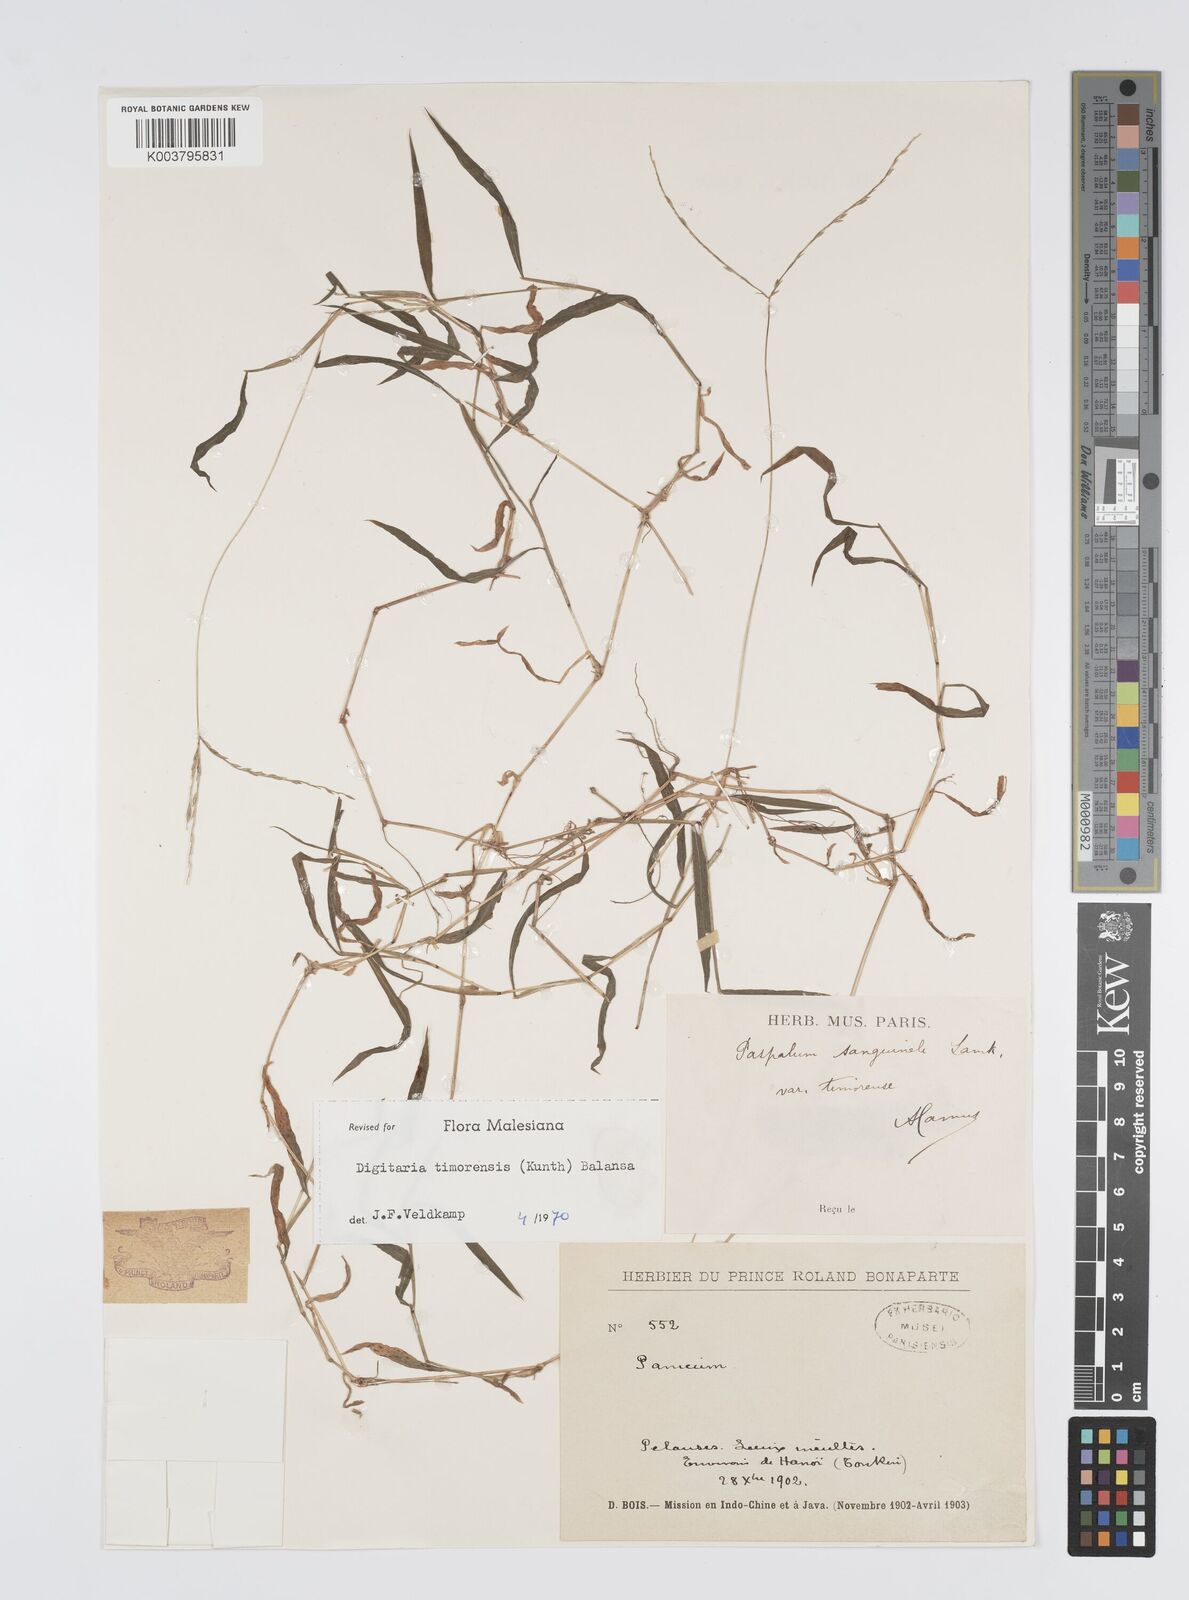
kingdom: Plantae
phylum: Tracheophyta
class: Liliopsida
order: Poales
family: Poaceae
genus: Digitaria
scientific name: Digitaria radicosa
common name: Trailing crabgrass
